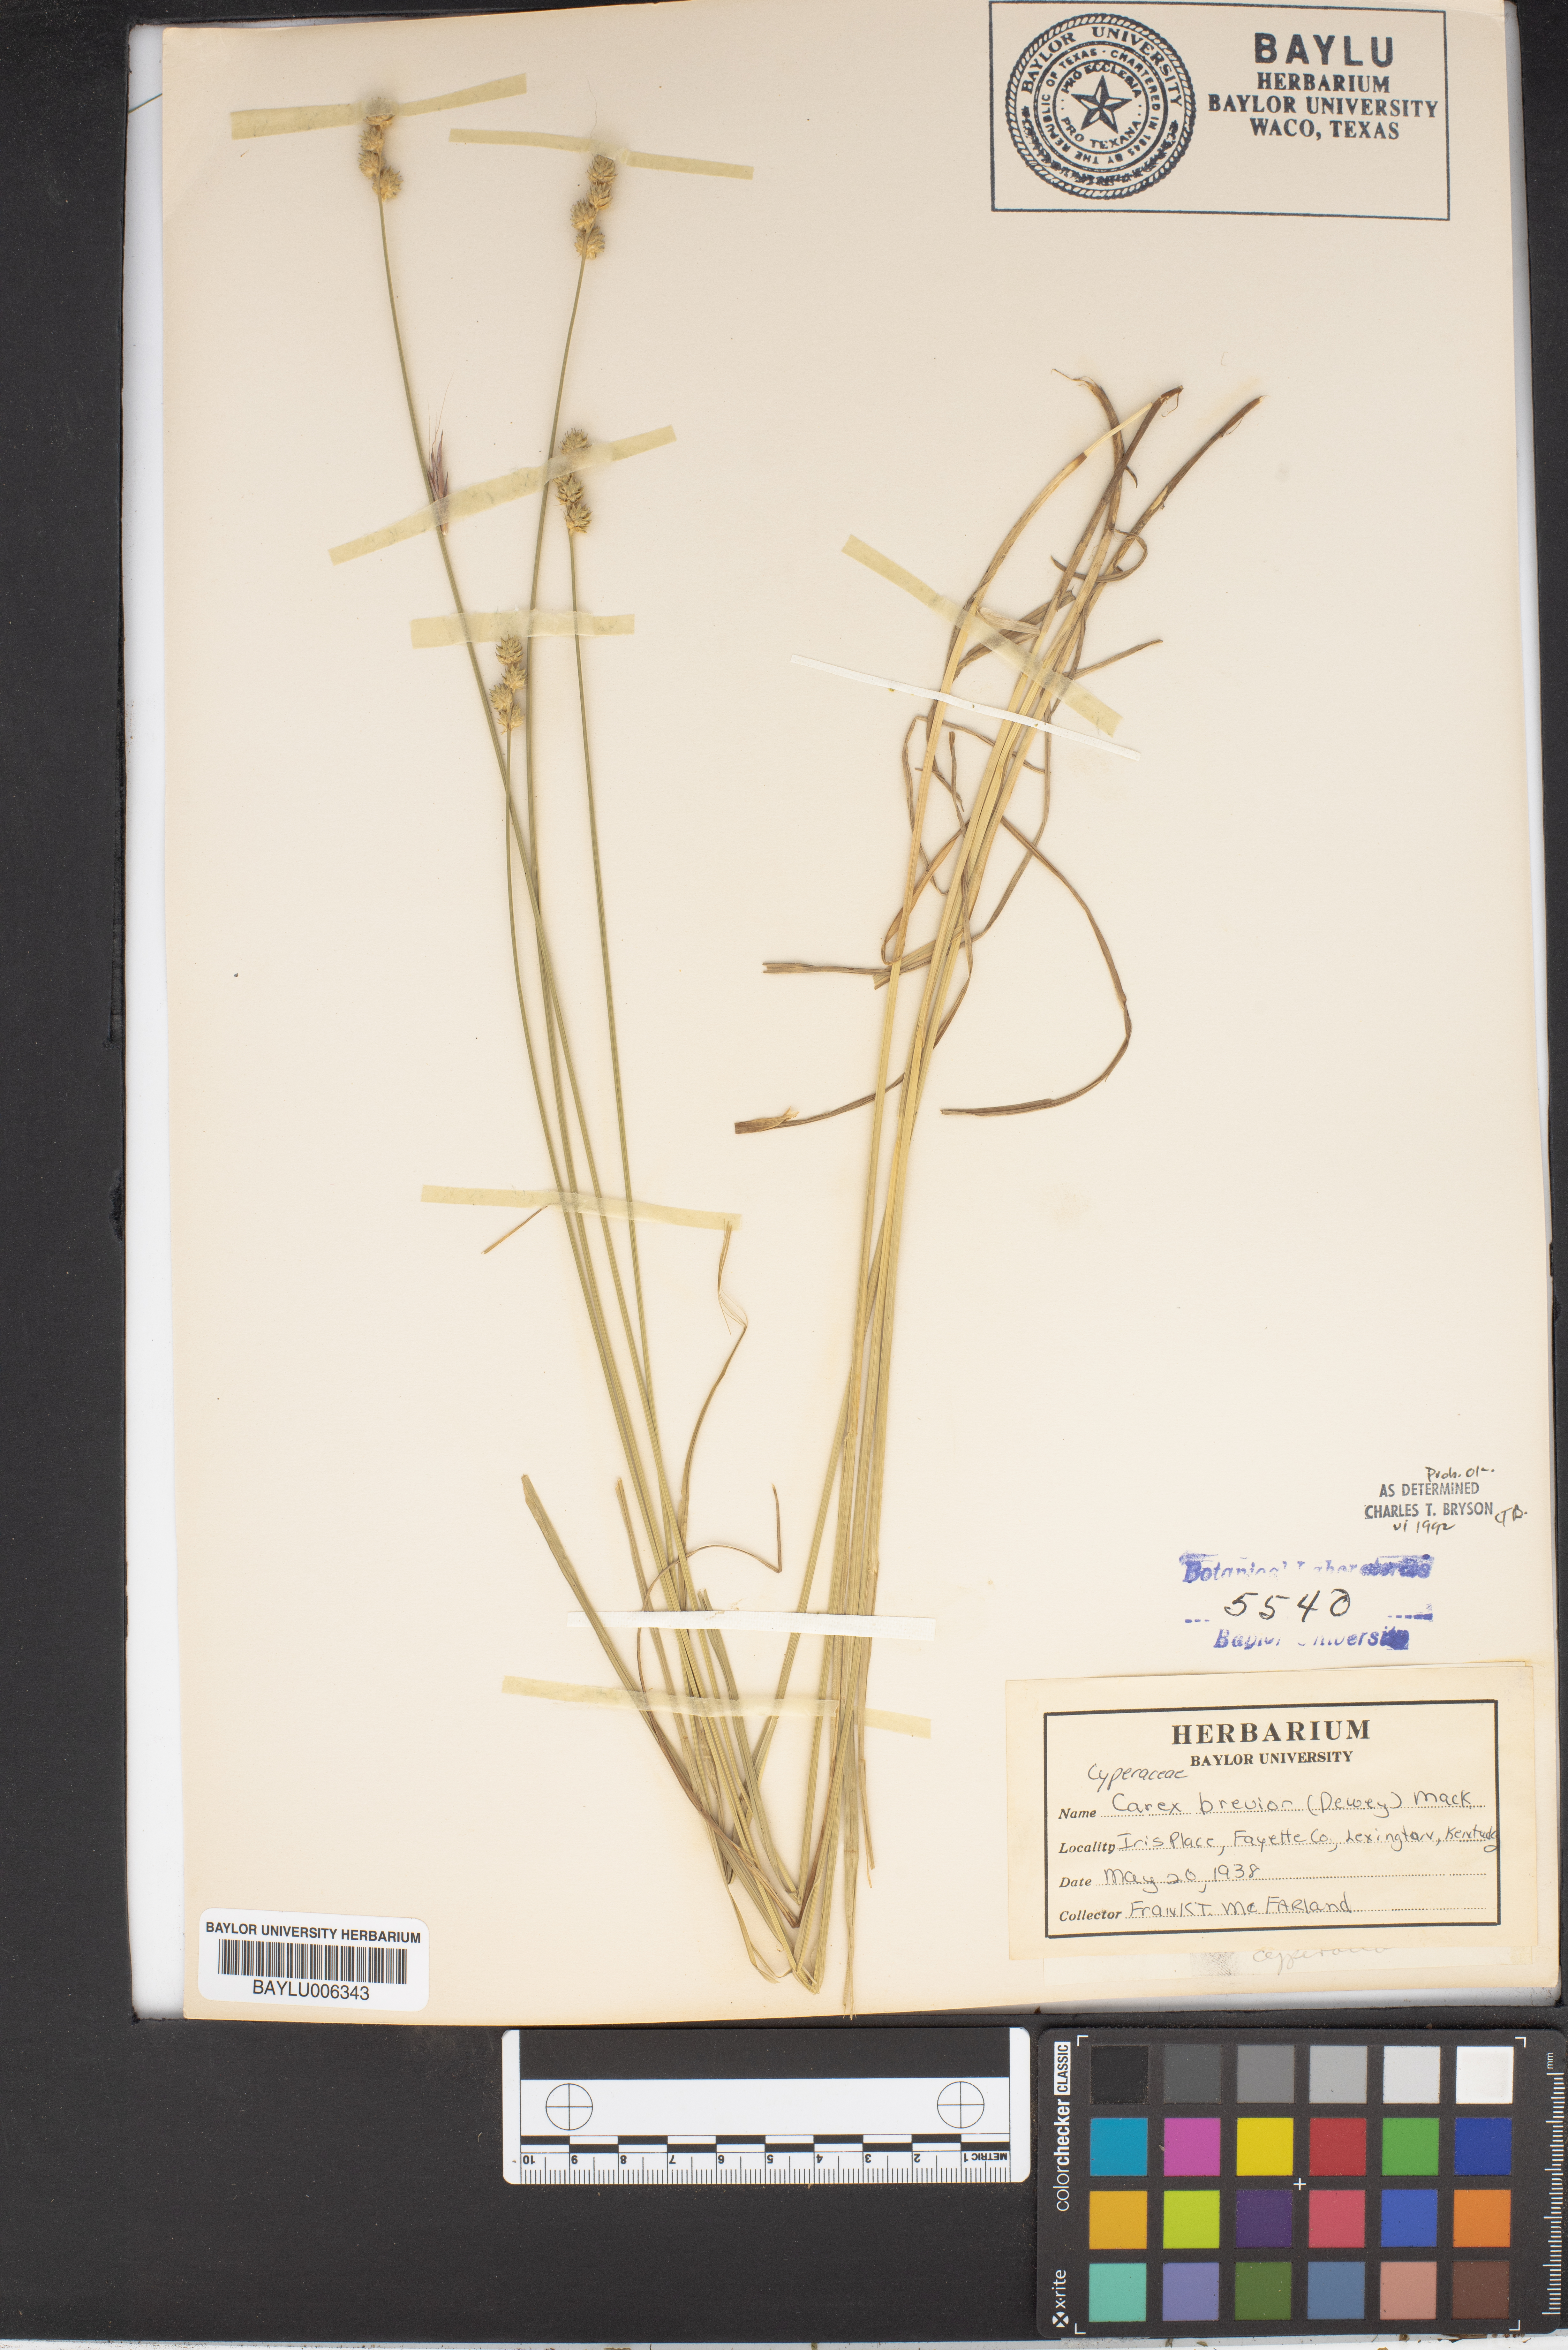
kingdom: Plantae
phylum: Tracheophyta
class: Liliopsida
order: Poales
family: Cyperaceae
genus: Carex
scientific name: Carex brevior
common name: Brevior sedge
